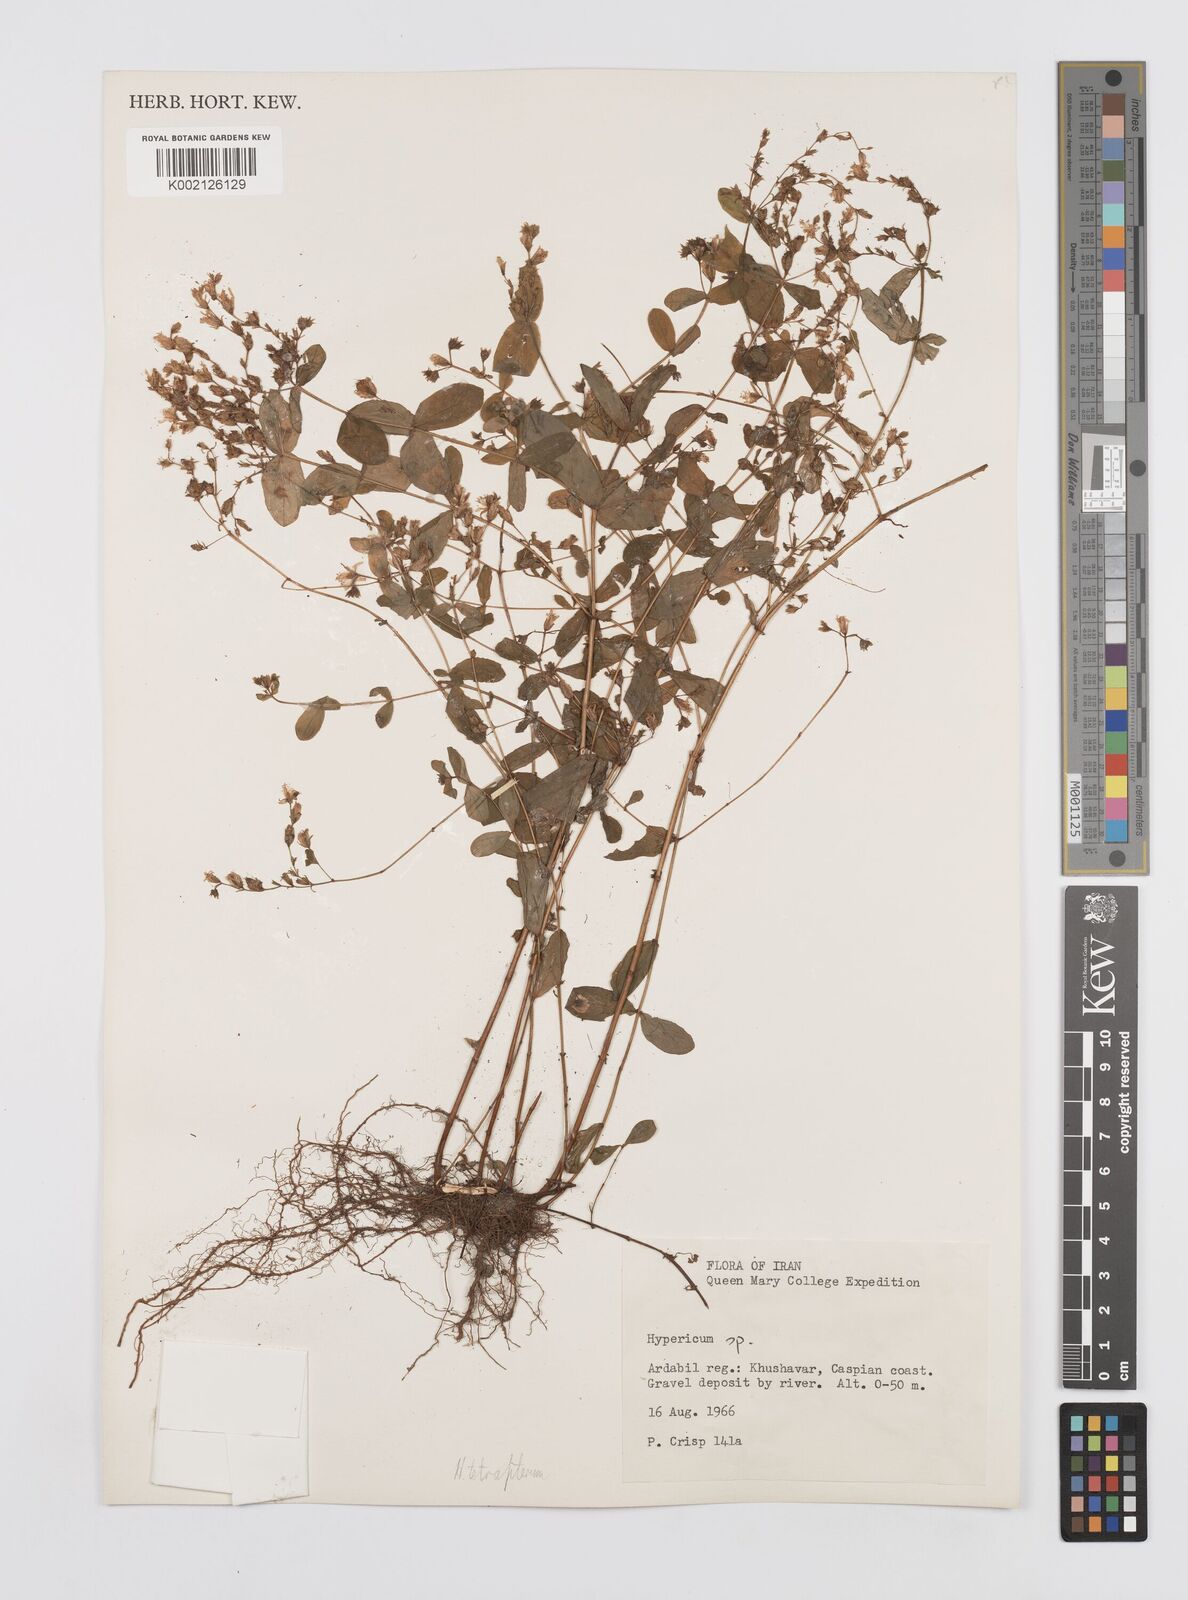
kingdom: Plantae
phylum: Tracheophyta
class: Magnoliopsida
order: Malpighiales
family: Hypericaceae
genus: Hypericum
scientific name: Hypericum tetrapterum
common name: Square-stalked st. john's-wort
